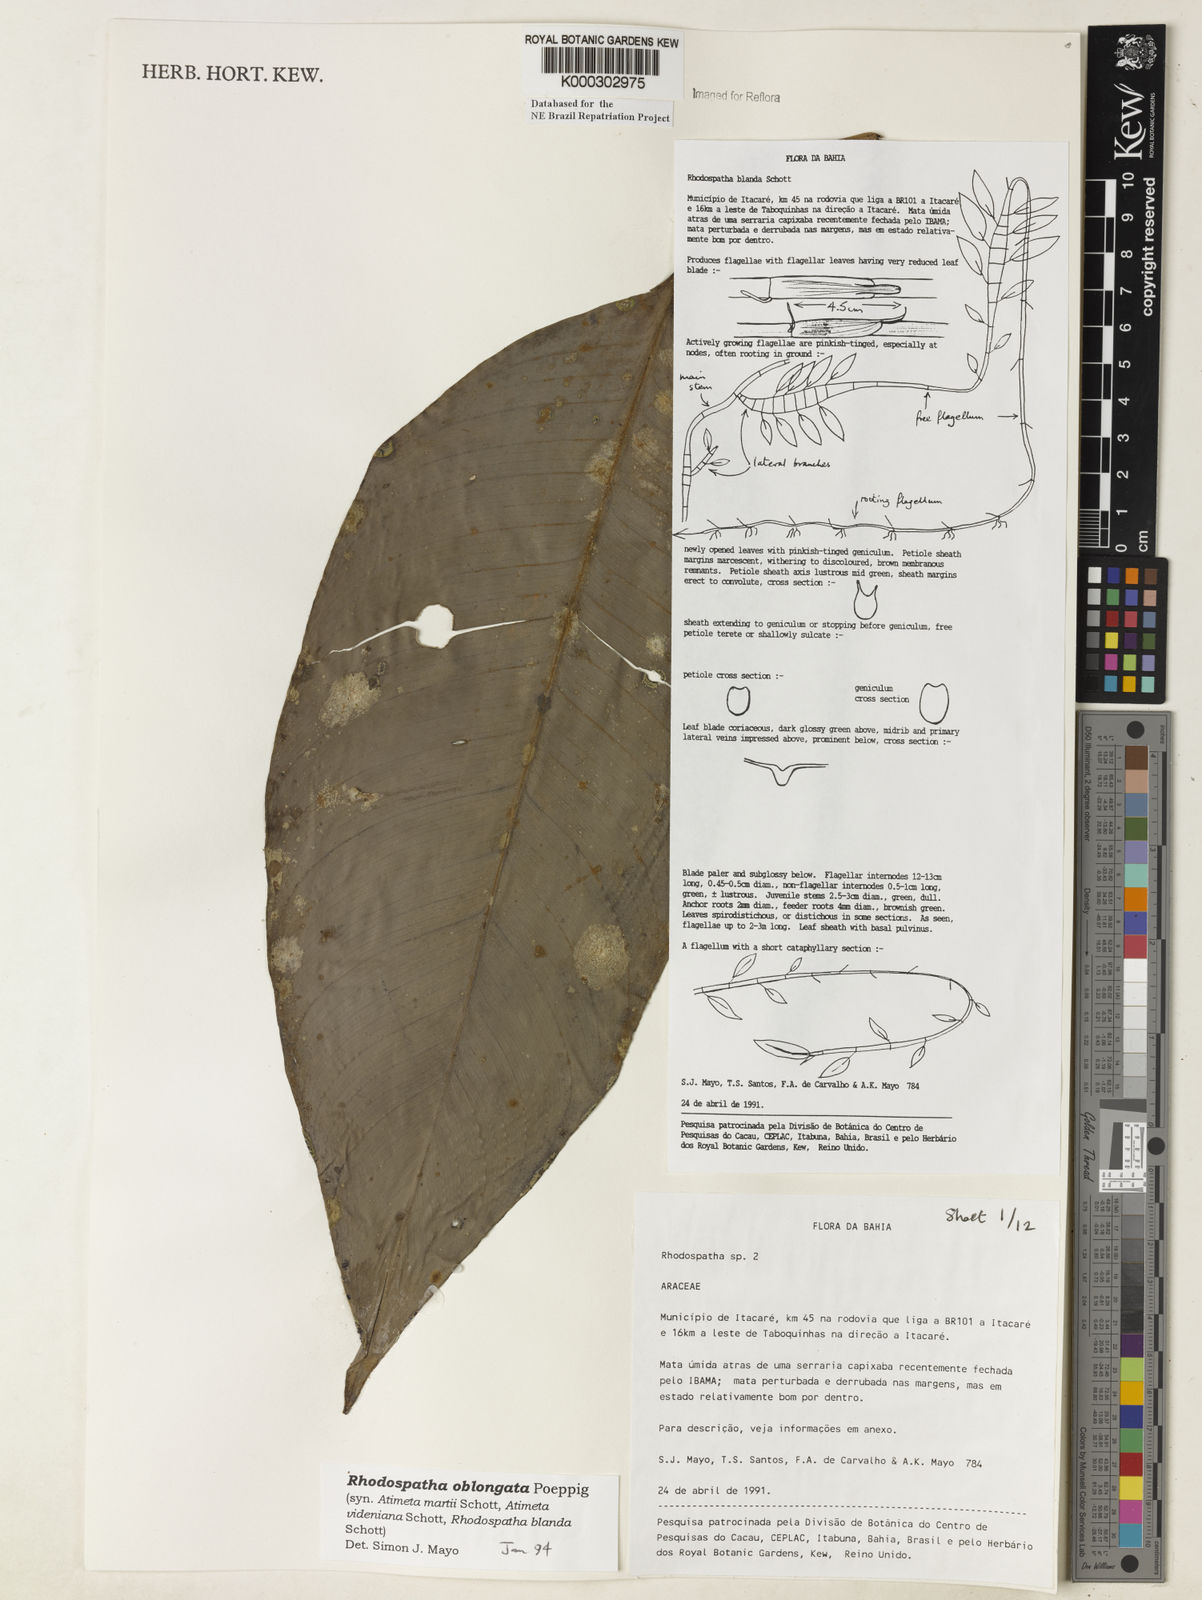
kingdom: Plantae
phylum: Tracheophyta
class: Liliopsida
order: Alismatales
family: Araceae
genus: Rhodospatha
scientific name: Rhodospatha oblongata
